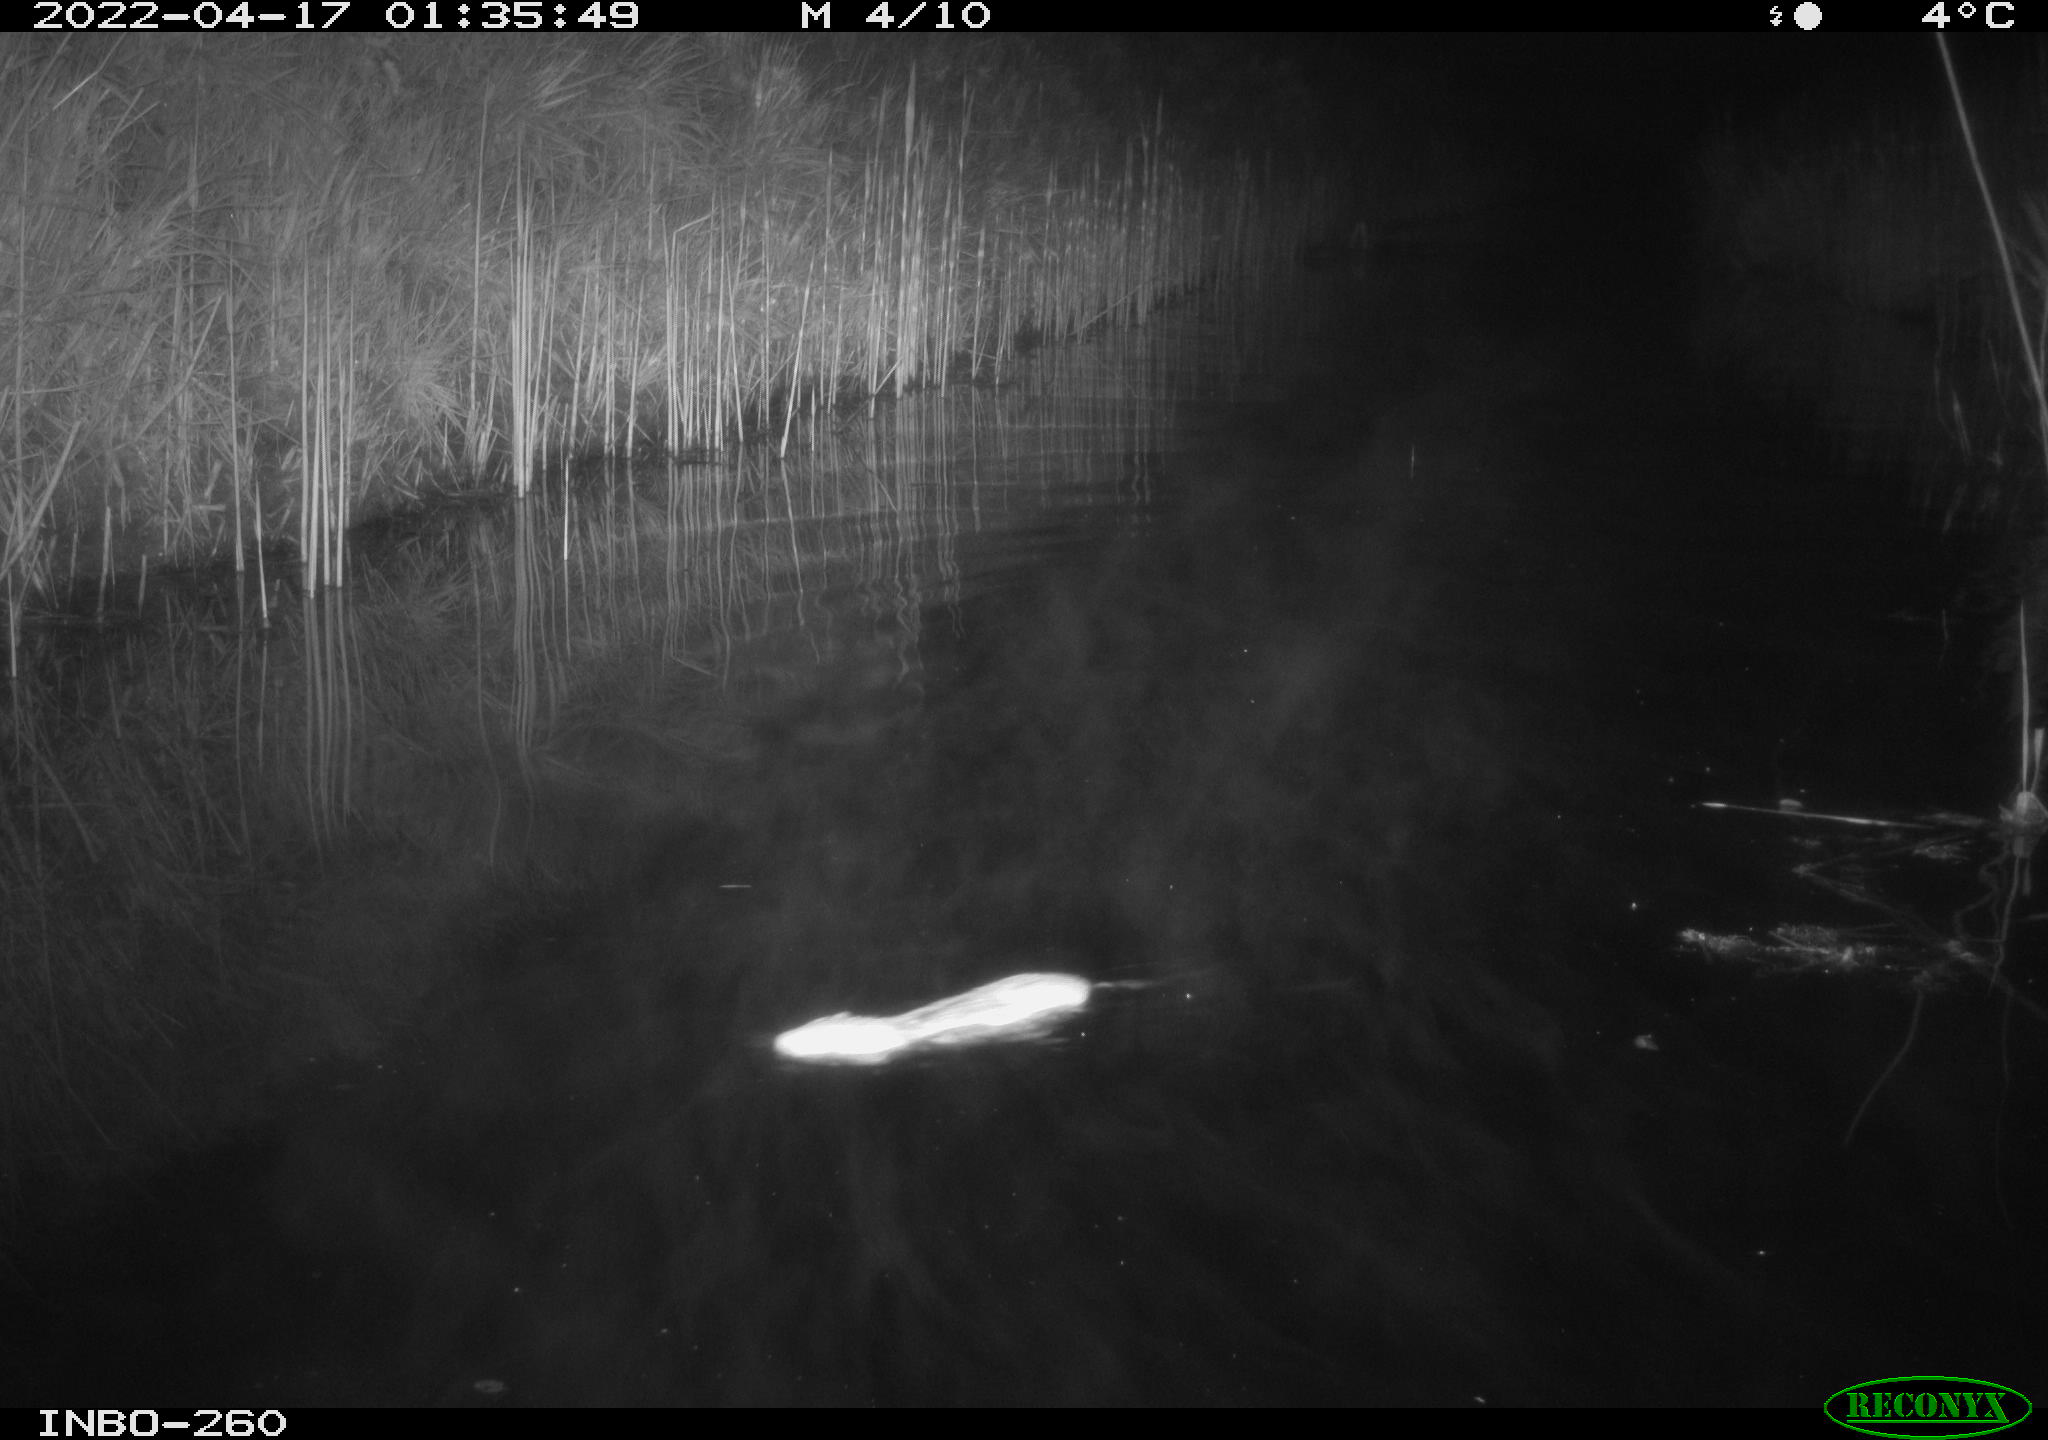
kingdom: Animalia
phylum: Chordata
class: Mammalia
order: Rodentia
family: Muridae
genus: Rattus
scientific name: Rattus norvegicus
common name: Brown rat
